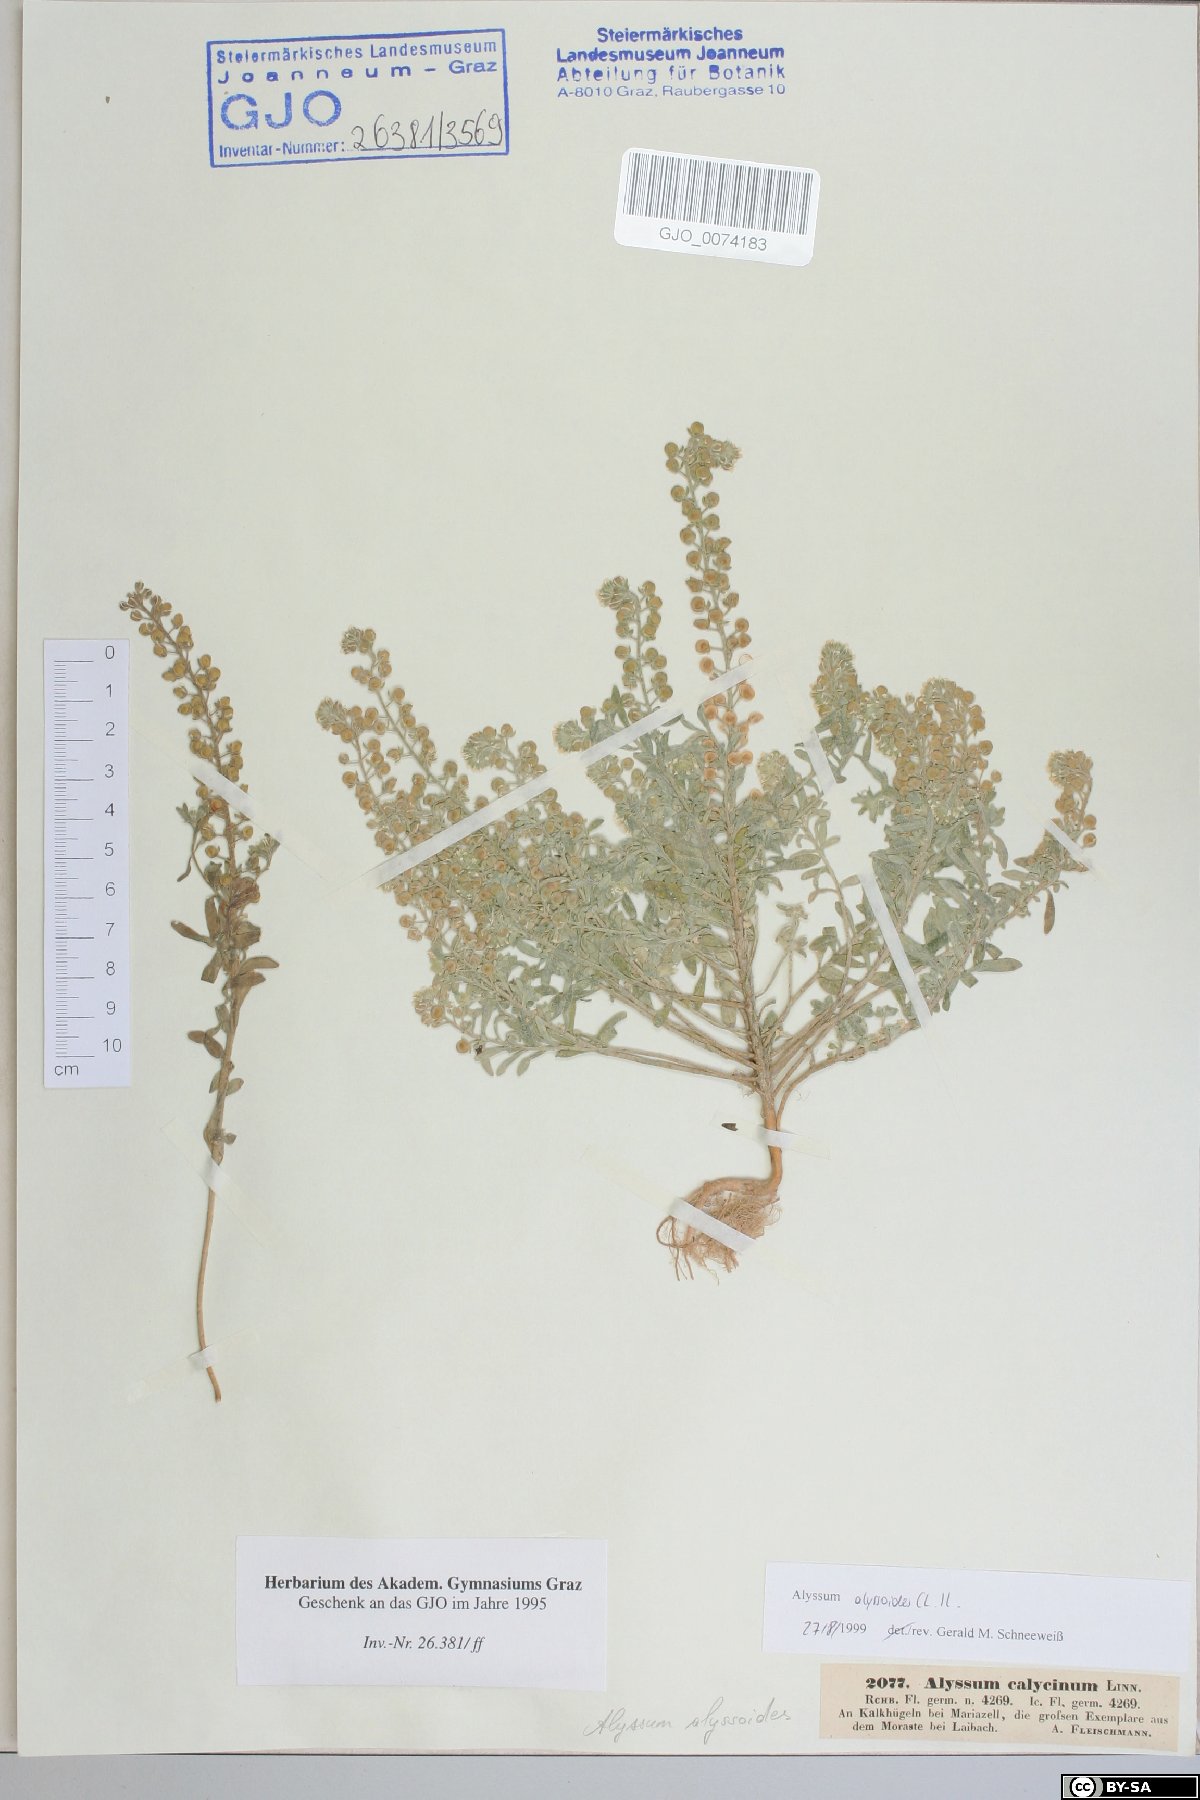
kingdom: Plantae
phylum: Tracheophyta
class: Magnoliopsida
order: Brassicales
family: Brassicaceae
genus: Alyssum
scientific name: Alyssum alyssoides
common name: Small alison
